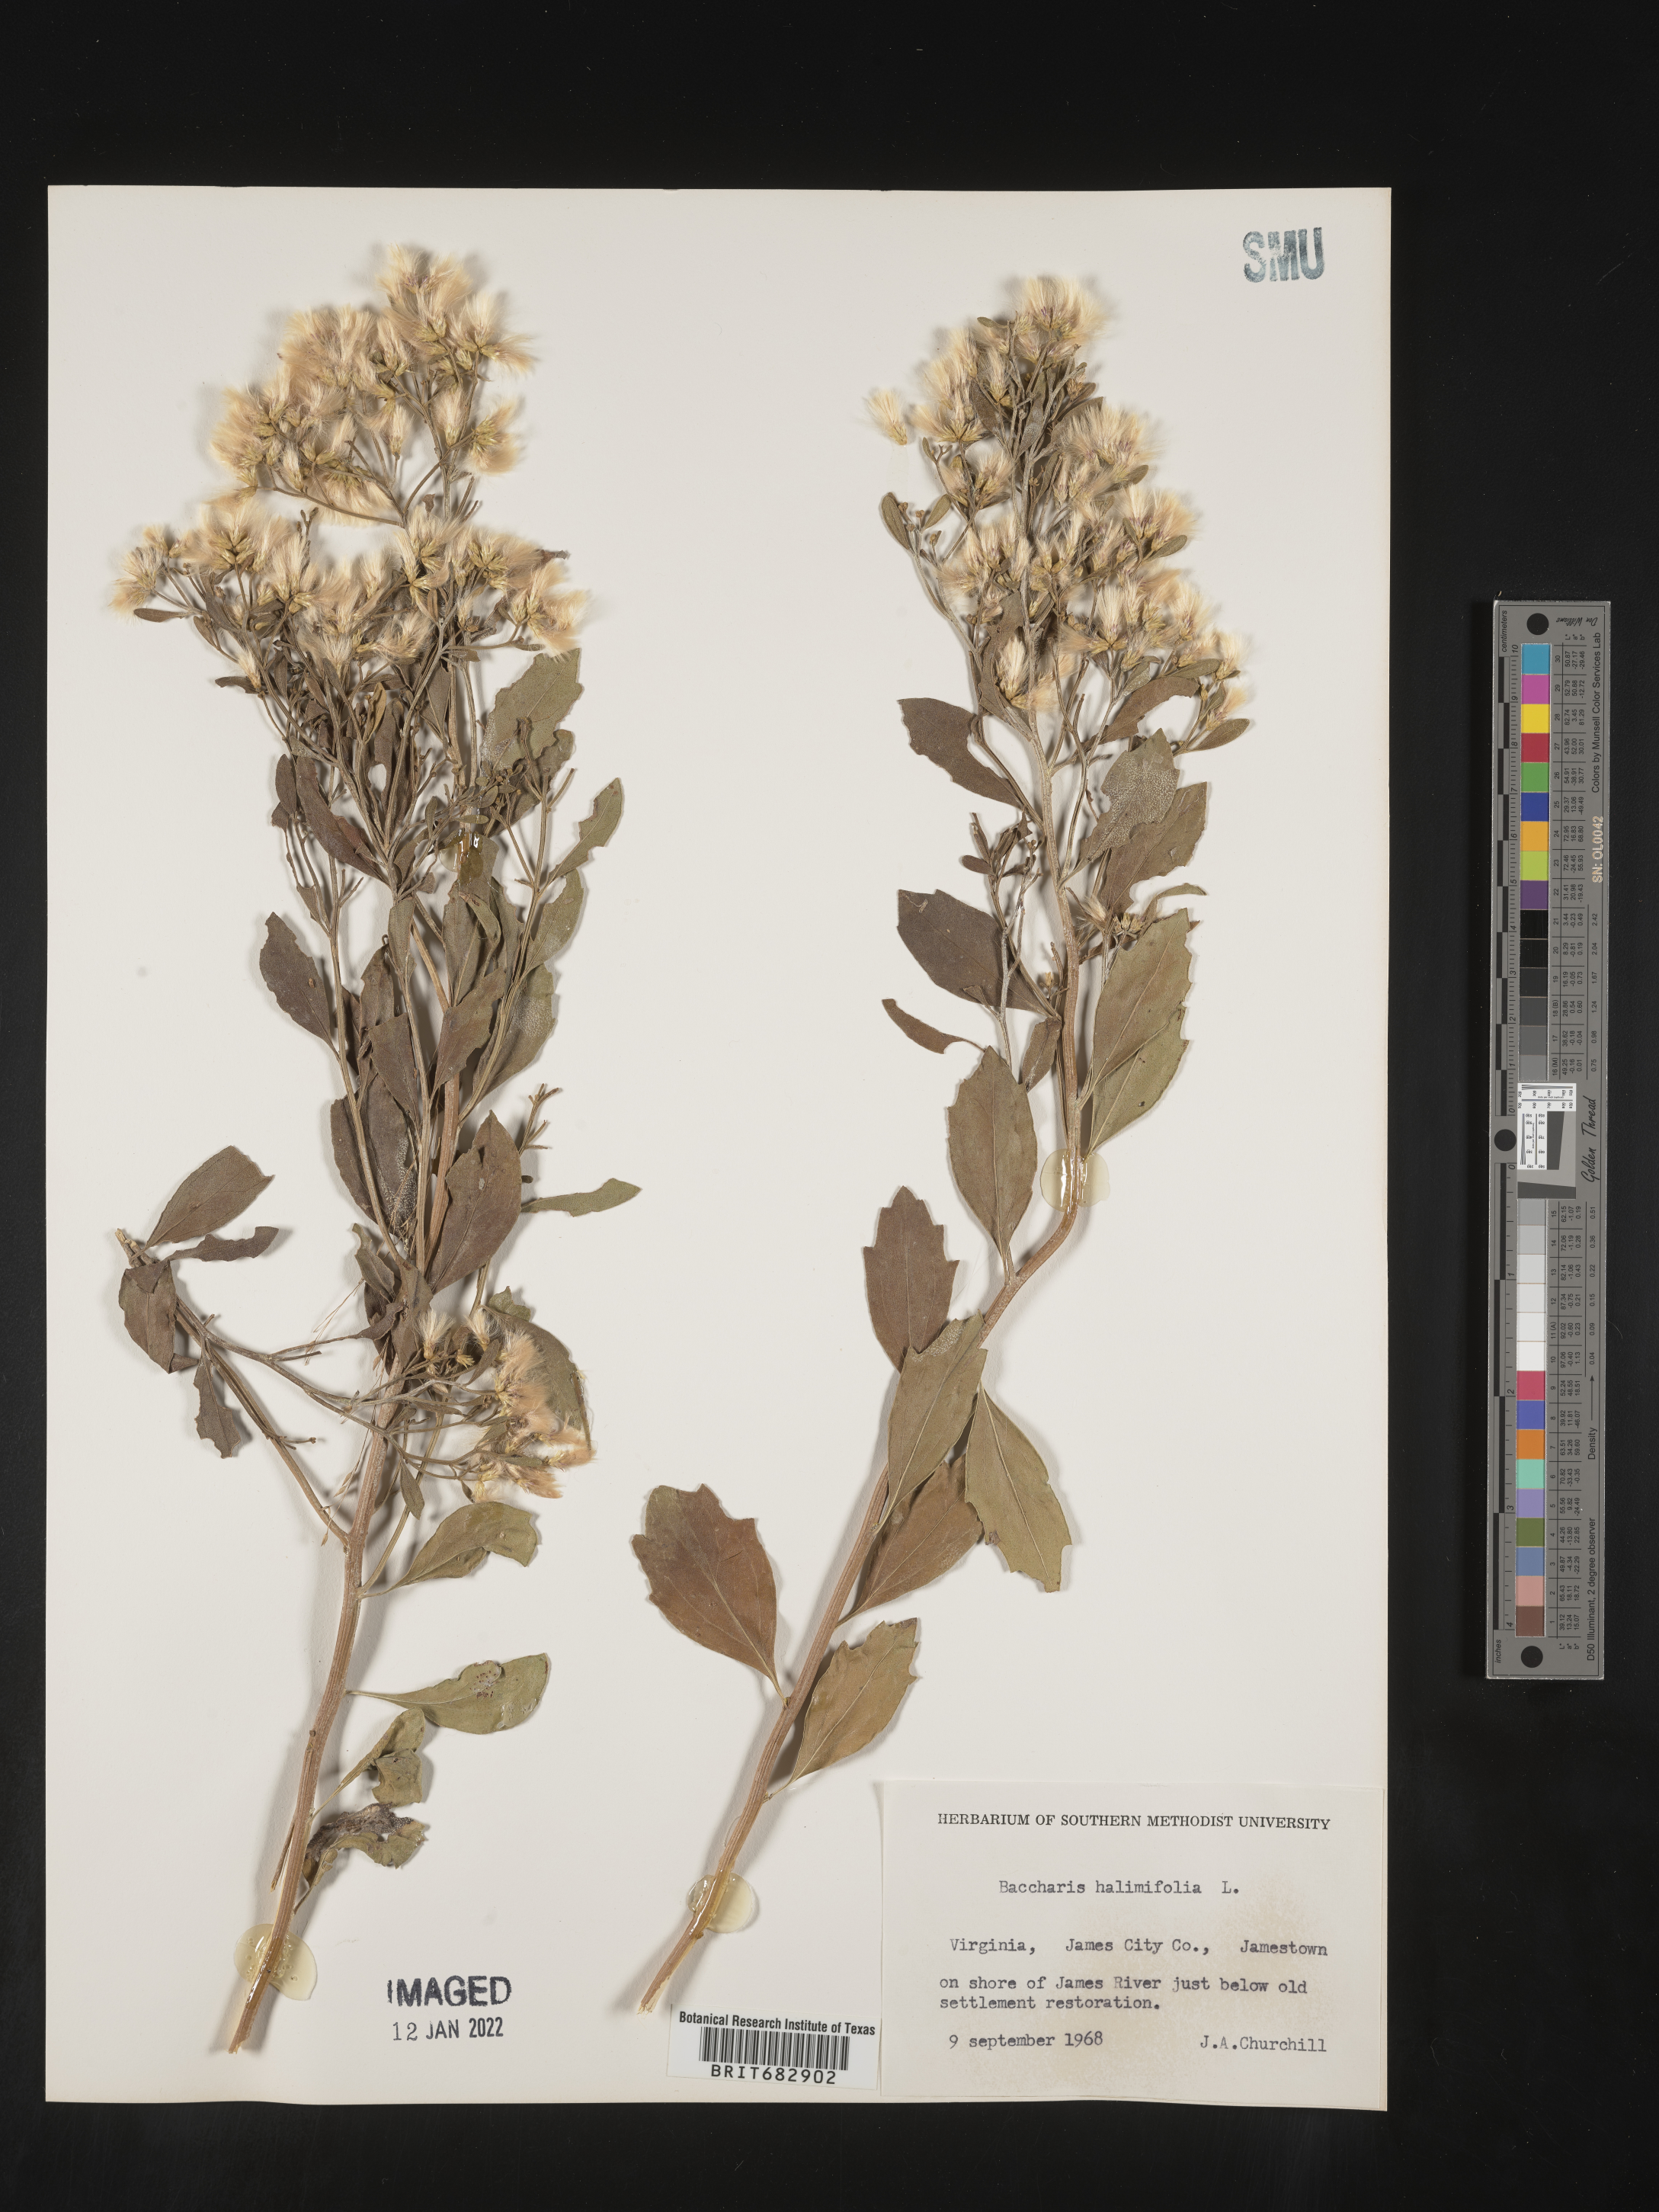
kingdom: Plantae
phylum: Tracheophyta
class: Magnoliopsida
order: Asterales
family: Asteraceae
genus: Nidorella
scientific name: Nidorella ivifolia
